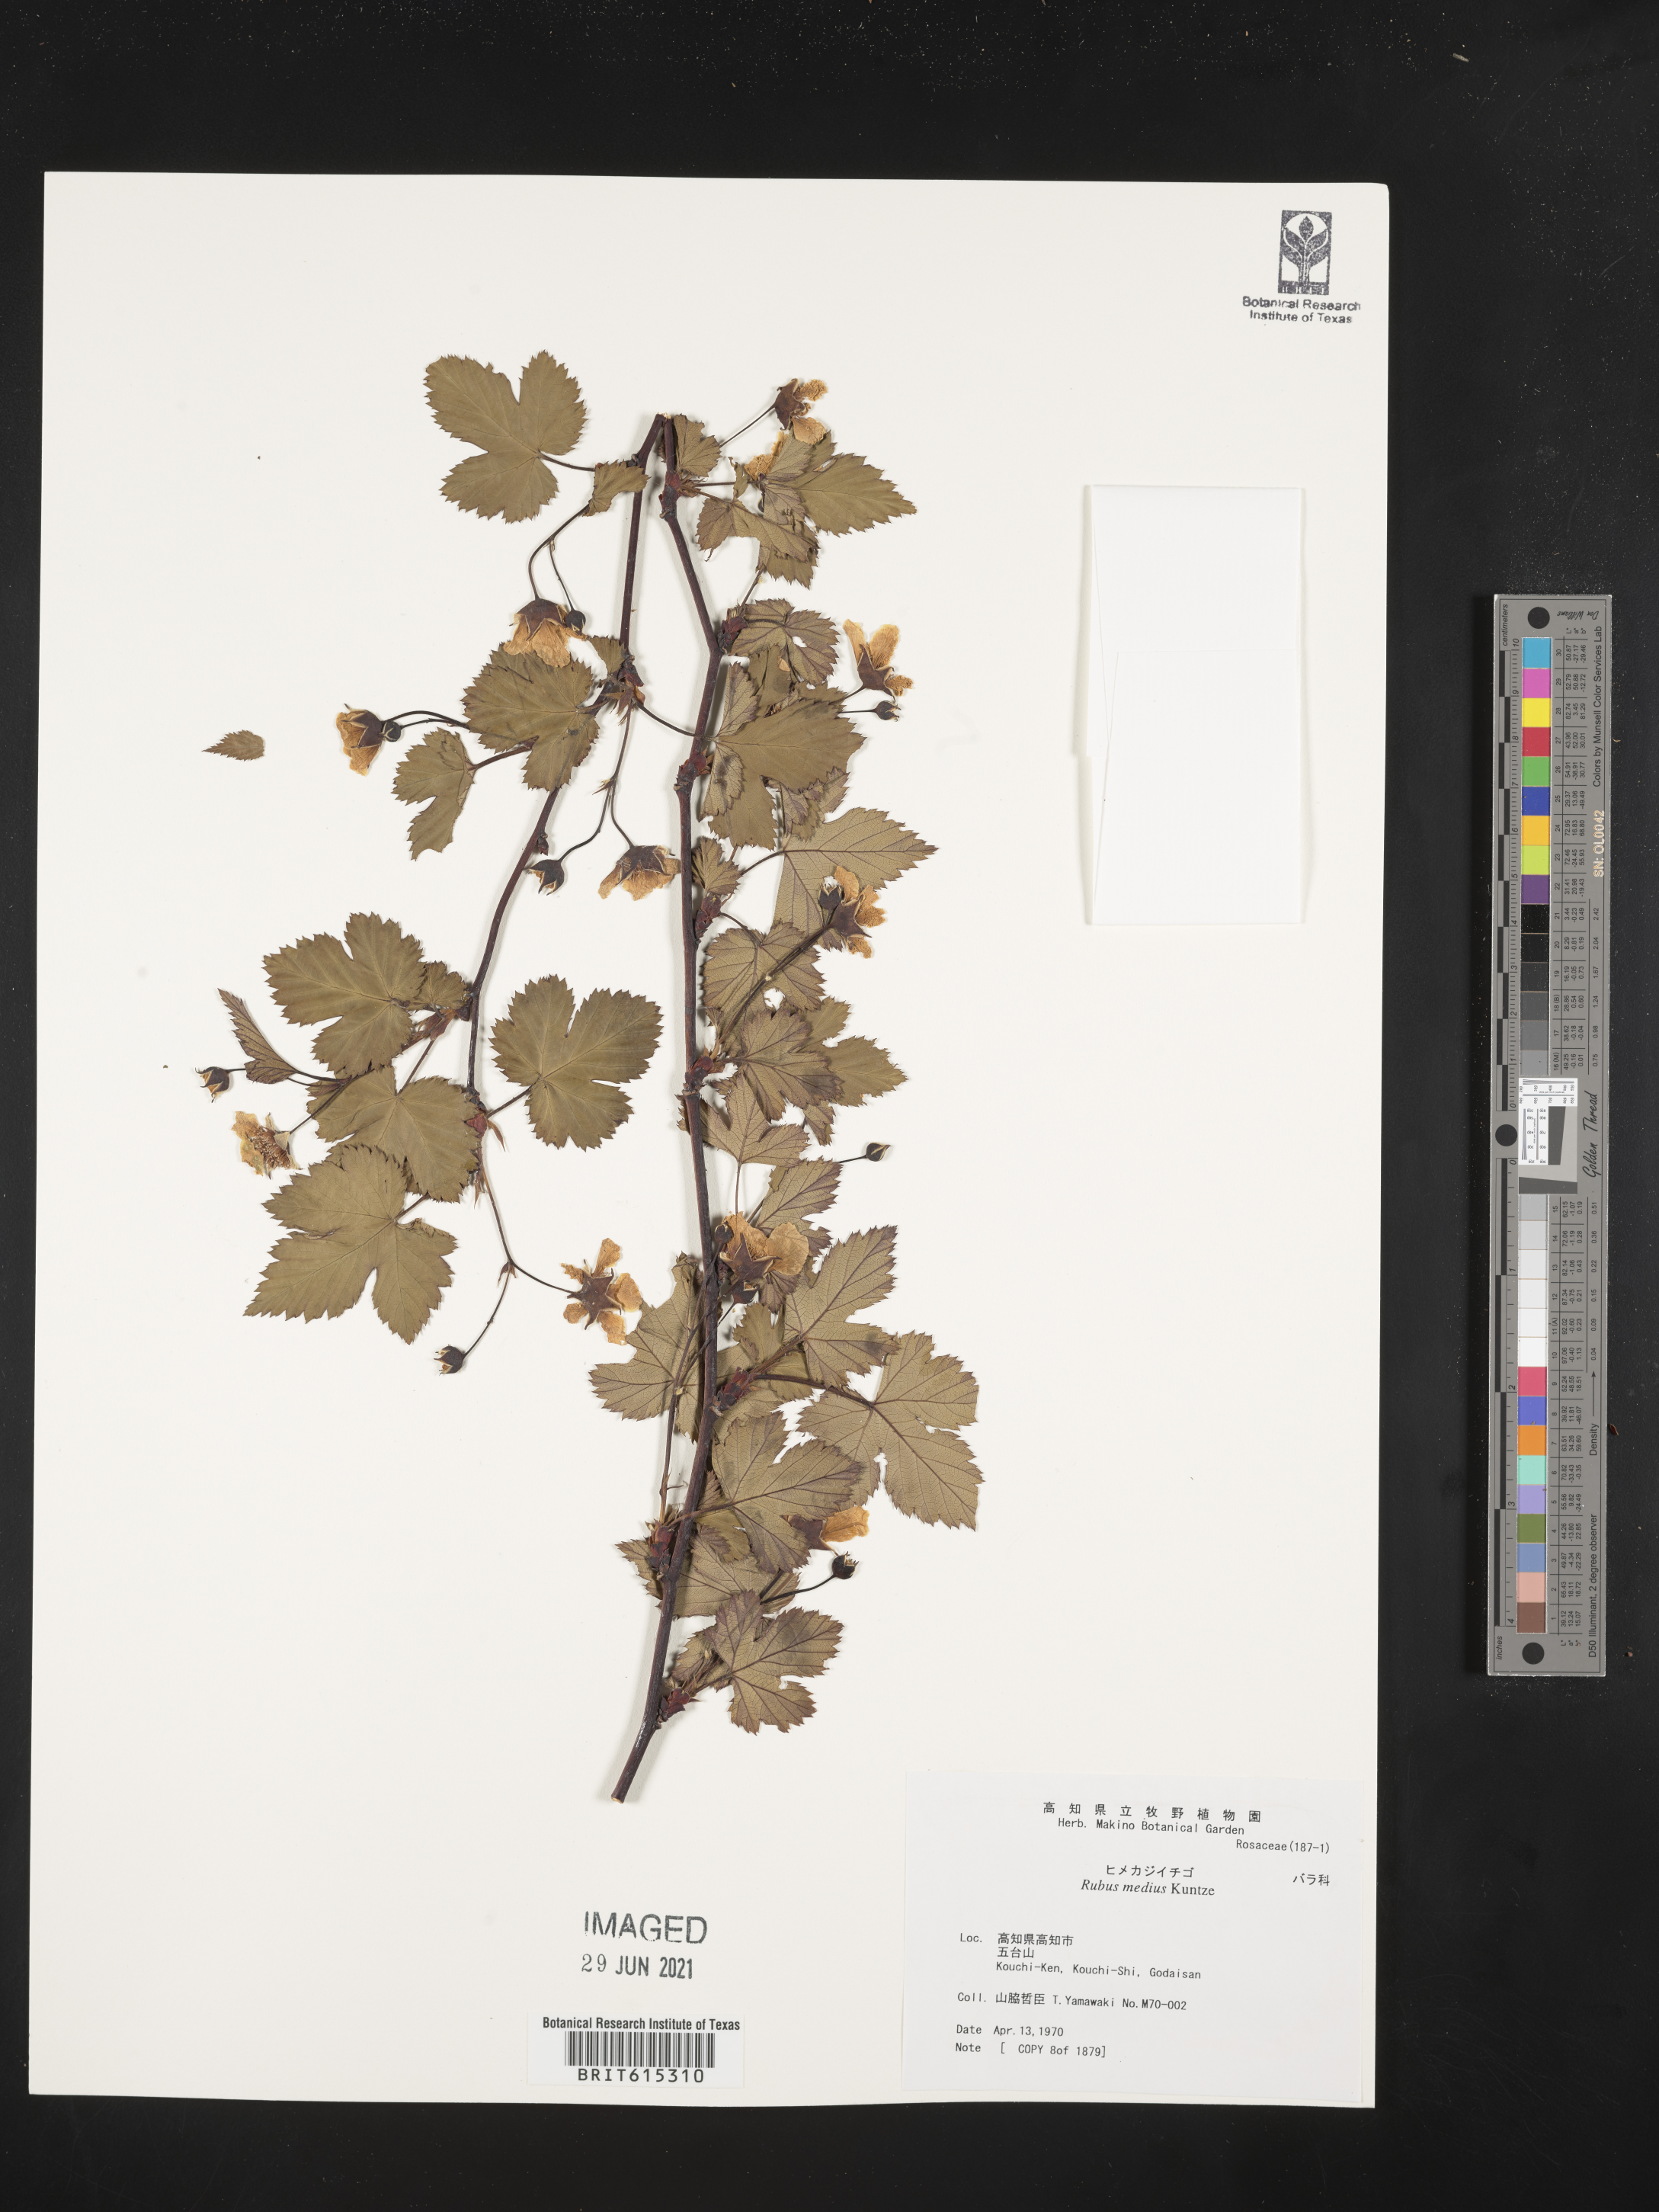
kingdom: Plantae
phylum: Tracheophyta
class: Magnoliopsida
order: Rosales
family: Rosaceae
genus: Rubus
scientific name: Rubus yatabei
